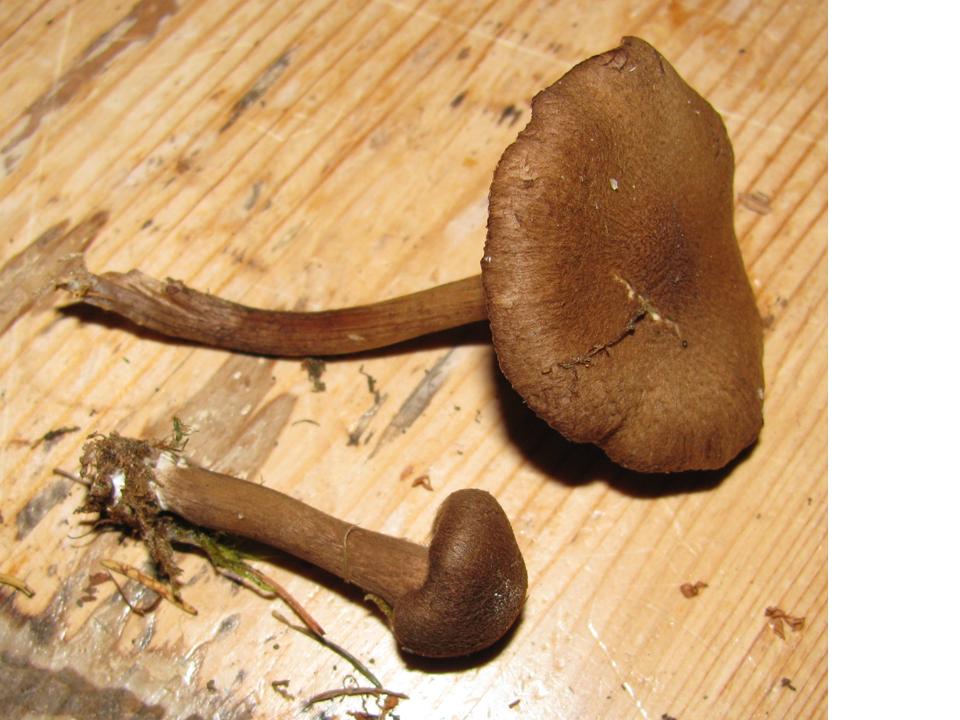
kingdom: Fungi
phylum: Basidiomycota
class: Agaricomycetes
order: Agaricales
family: Inocybaceae
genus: Inocybe
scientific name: Inocybe lanuginosa
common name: uldskællet trævlhat
